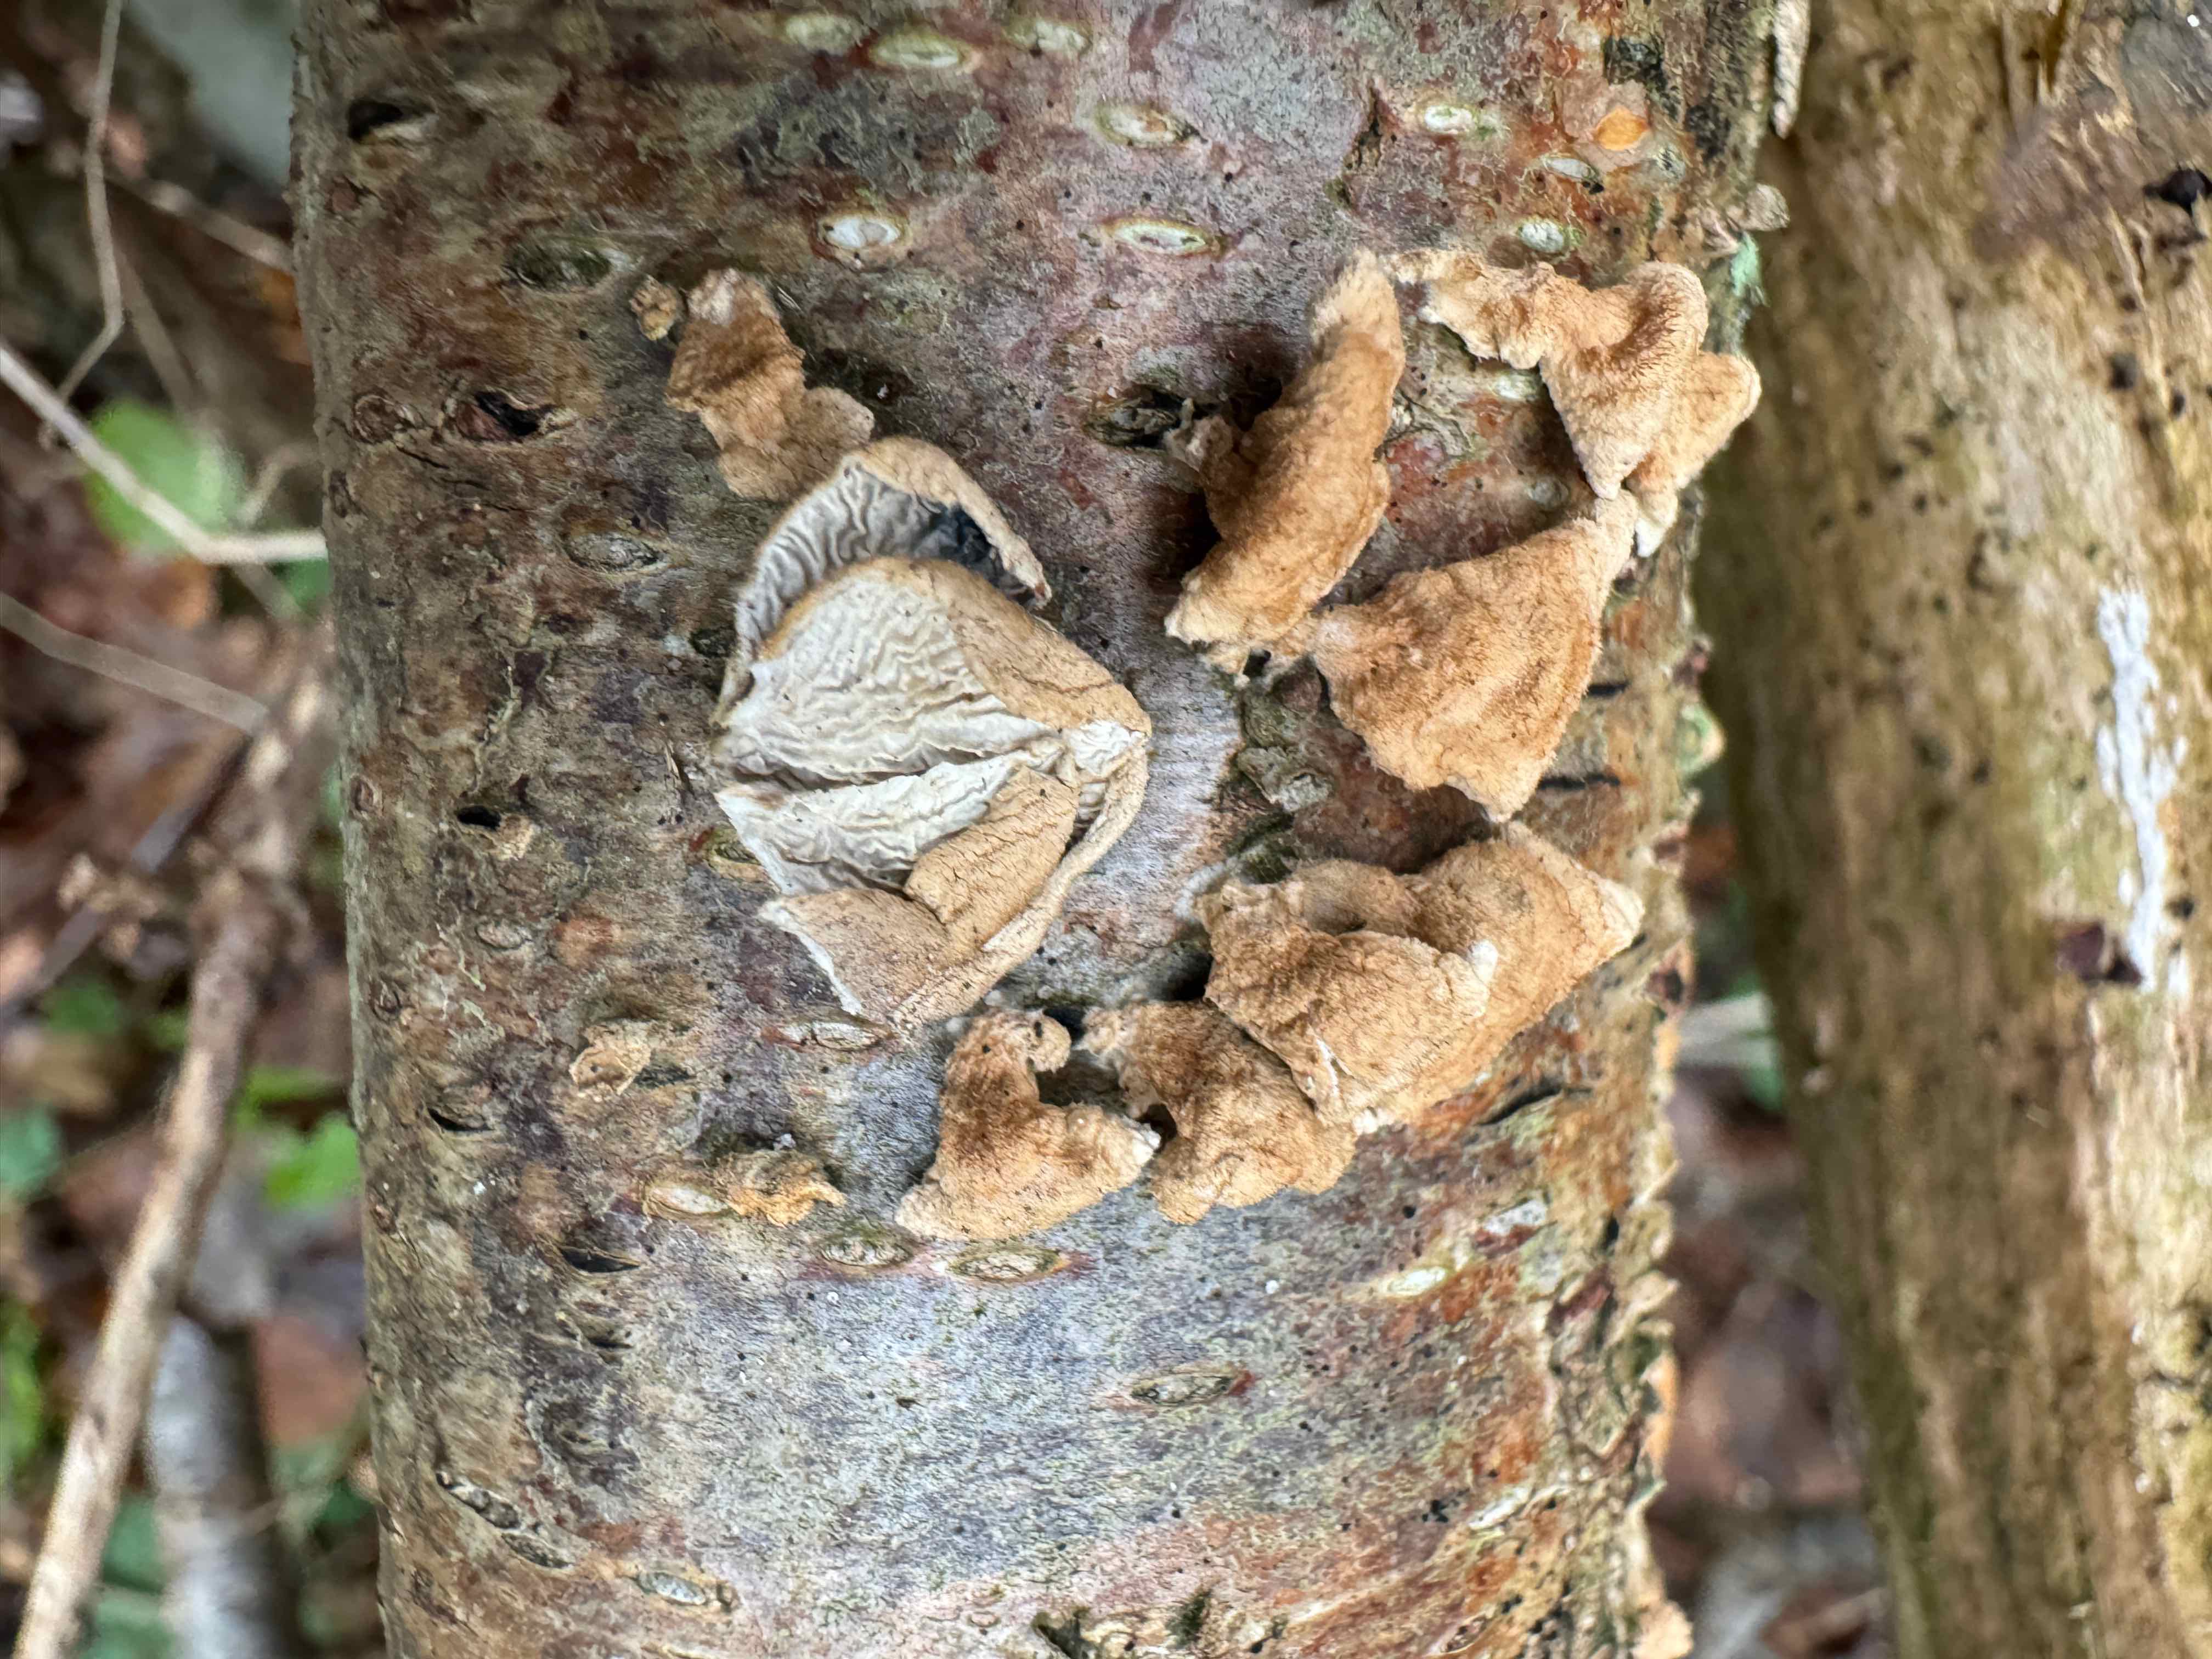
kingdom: Fungi
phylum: Basidiomycota
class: Agaricomycetes
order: Amylocorticiales
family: Amylocorticiaceae
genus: Plicaturopsis
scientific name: Plicaturopsis crispa
